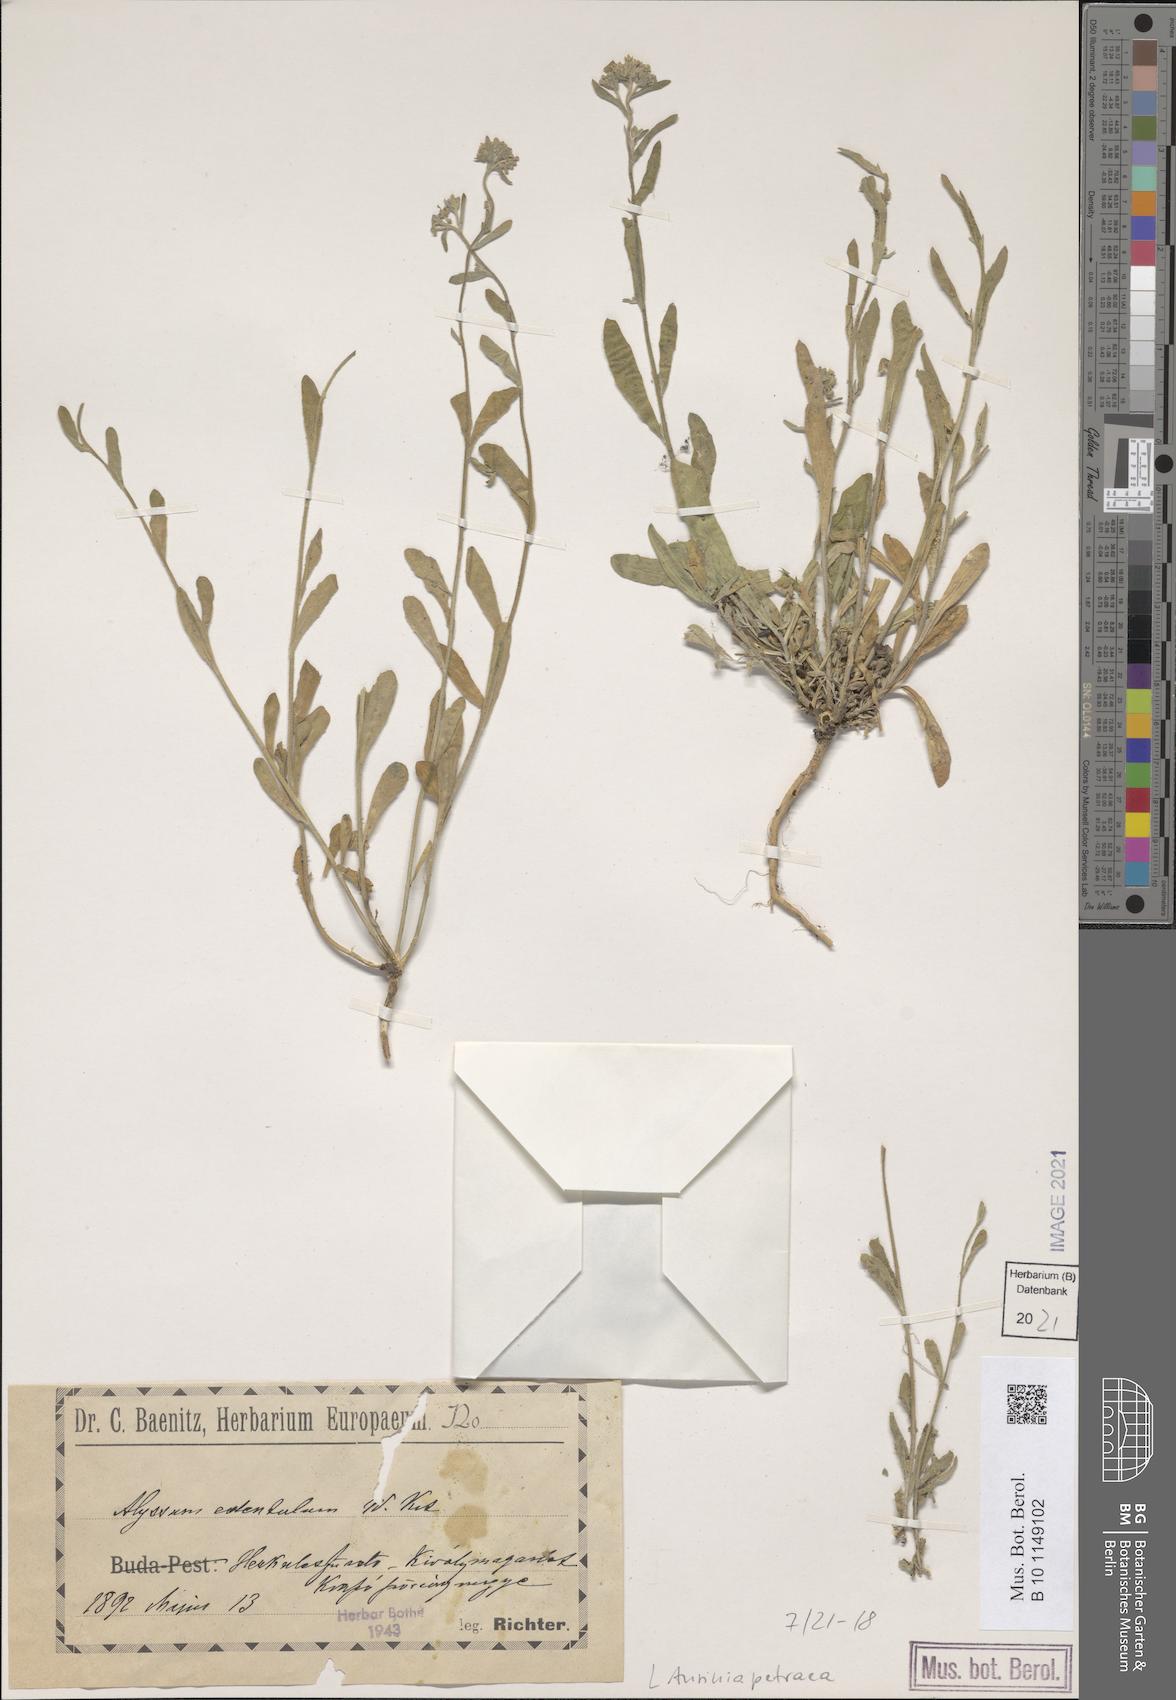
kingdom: Plantae
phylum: Tracheophyta
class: Magnoliopsida
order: Brassicales
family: Brassicaceae
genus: Aurinia
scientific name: Aurinia petraea
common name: Goldentuft
